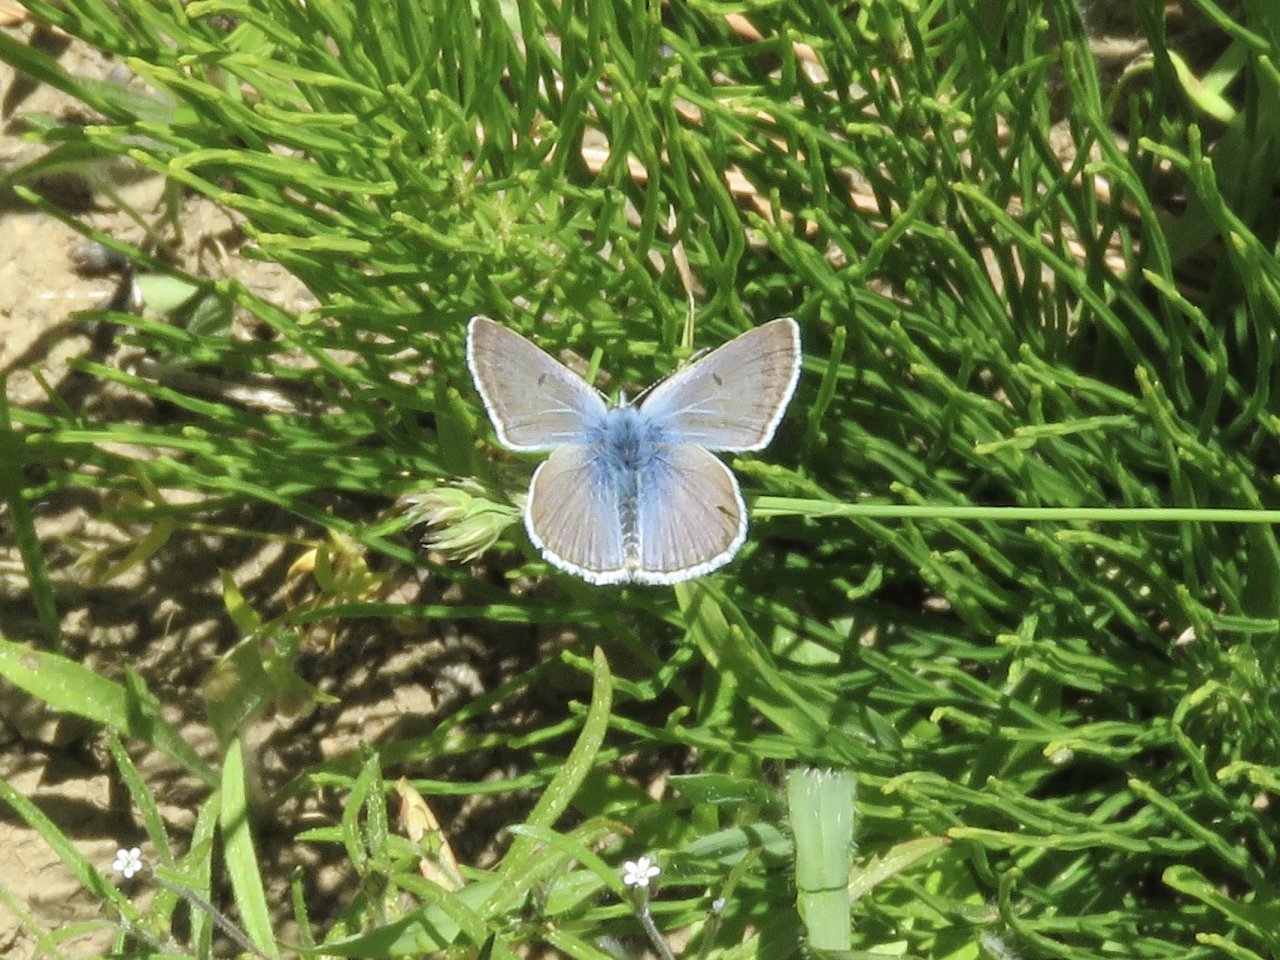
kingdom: Animalia
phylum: Arthropoda
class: Insecta
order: Lepidoptera
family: Lycaenidae
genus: Plebejus
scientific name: Plebejus saepiolus
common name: Greenish Blue
